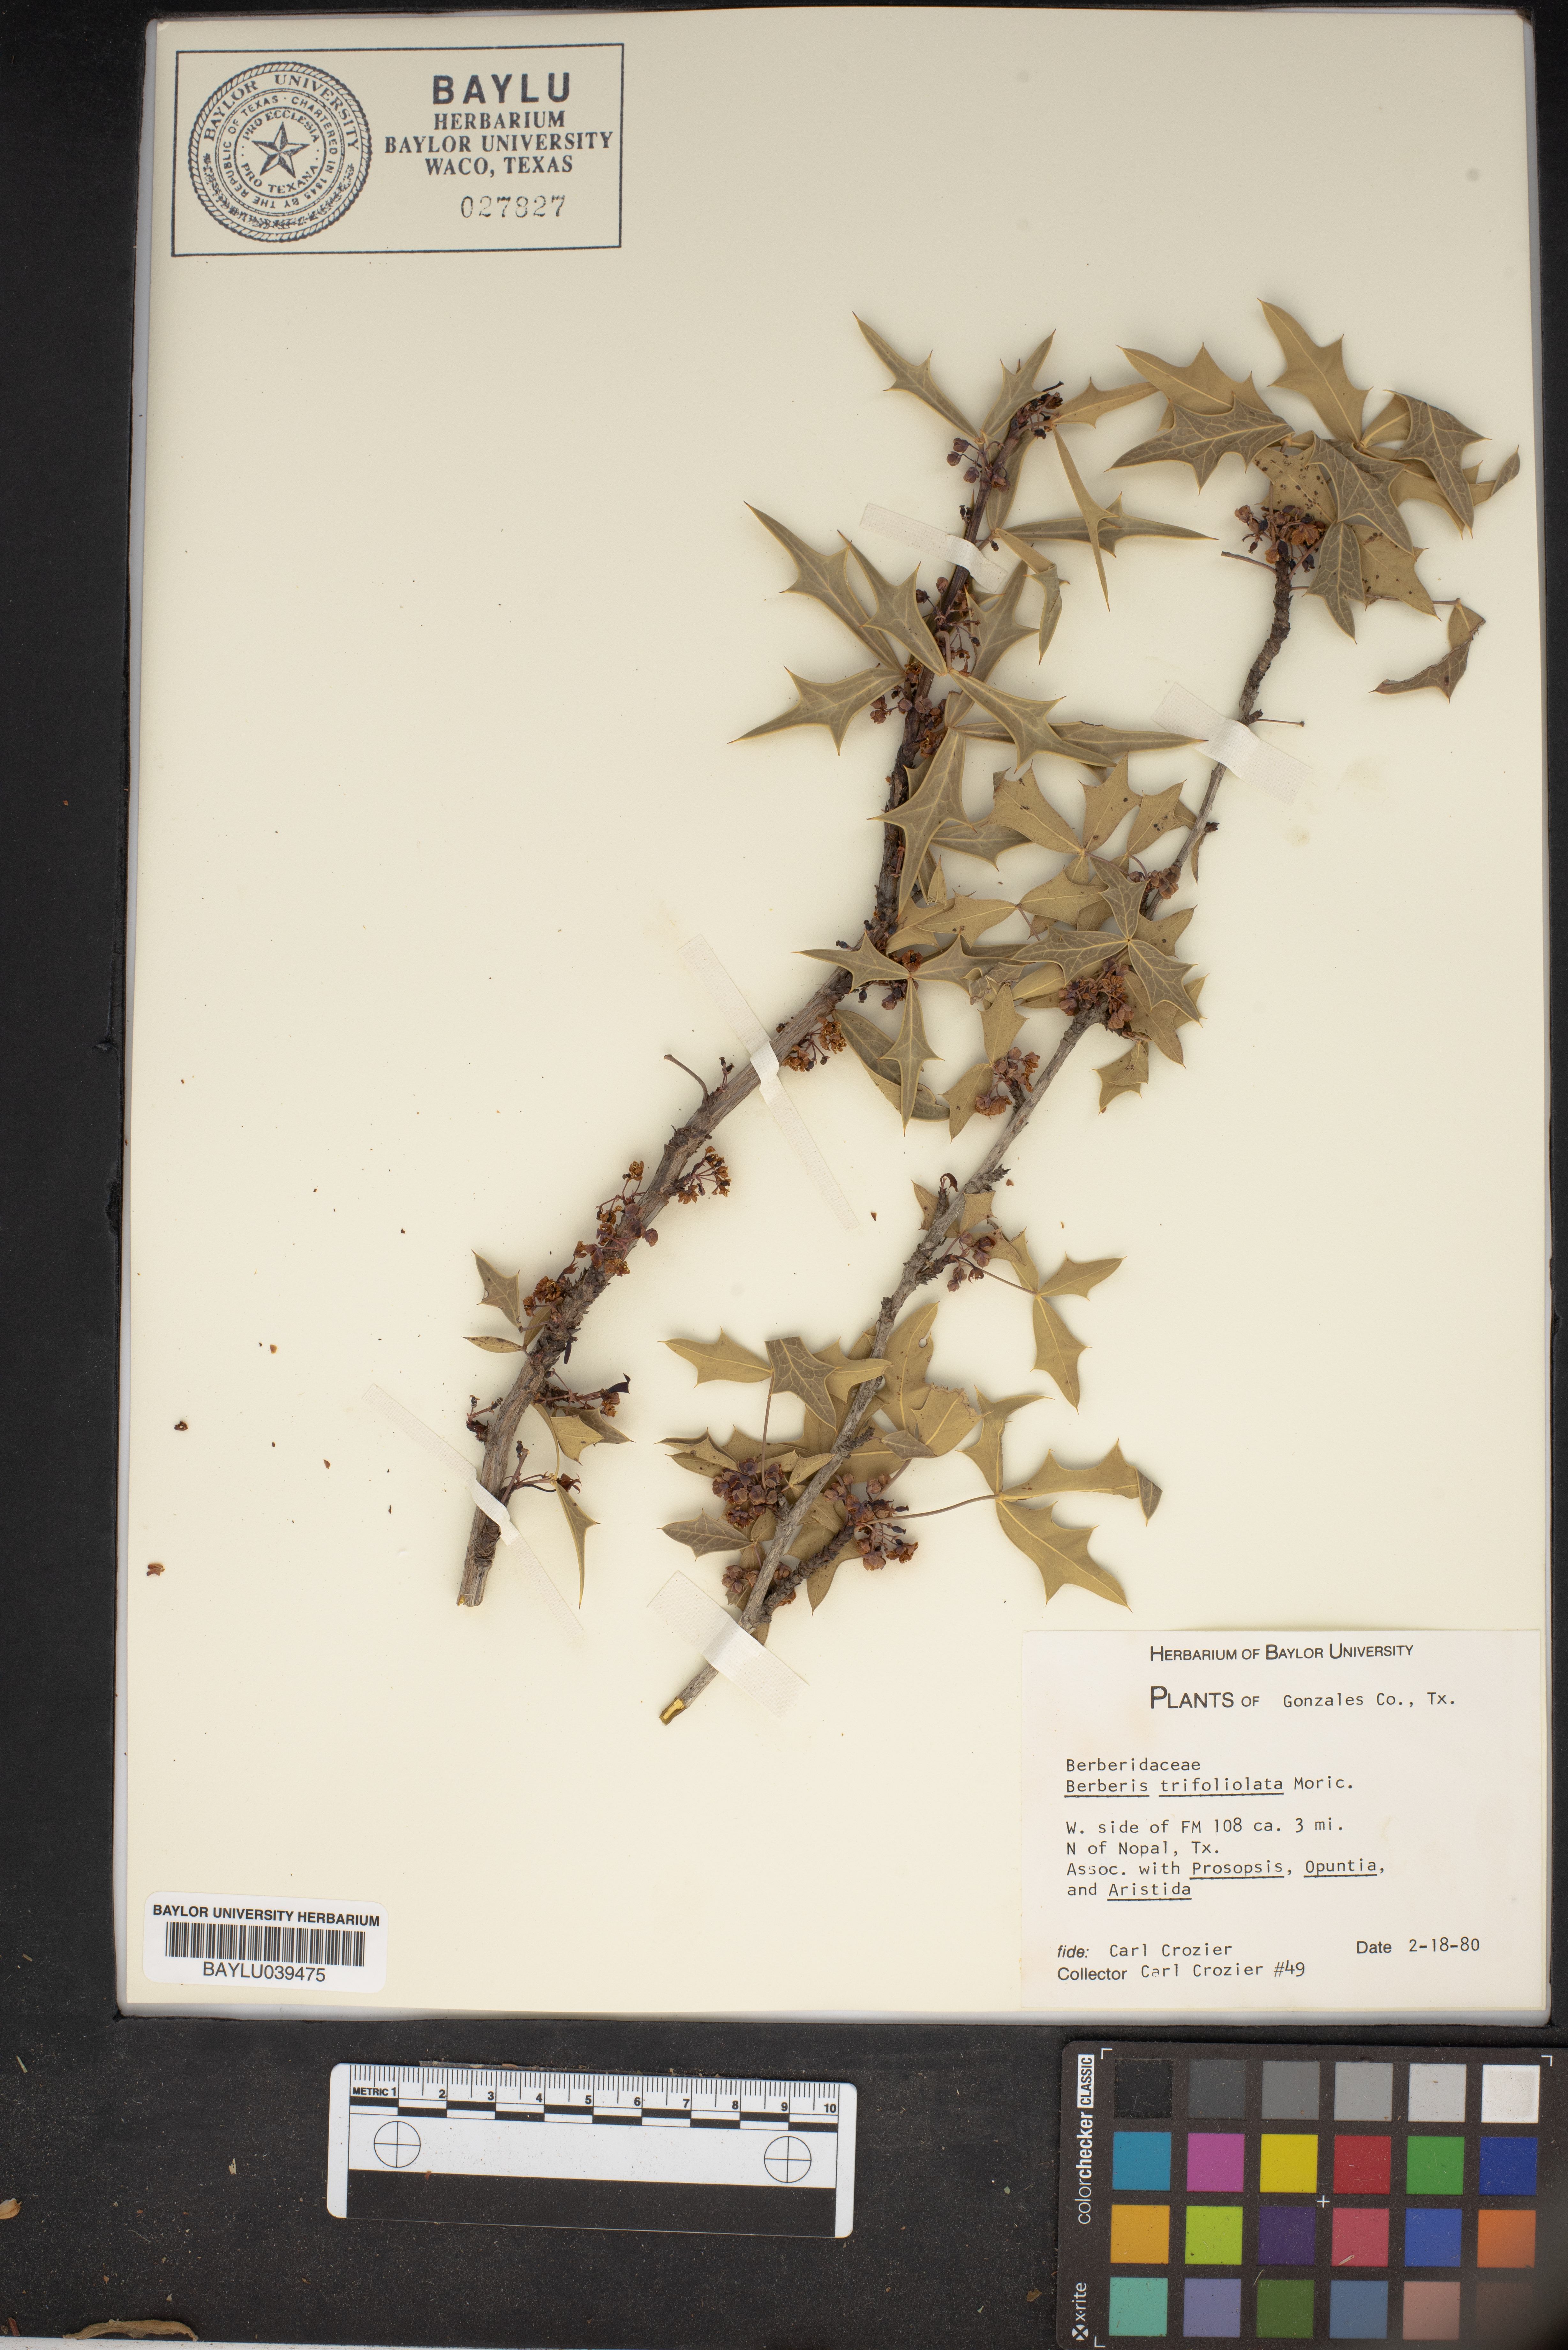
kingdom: Plantae
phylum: Tracheophyta
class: Magnoliopsida
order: Ranunculales
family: Berberidaceae
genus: Alloberberis
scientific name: Alloberberis trifoliolata
